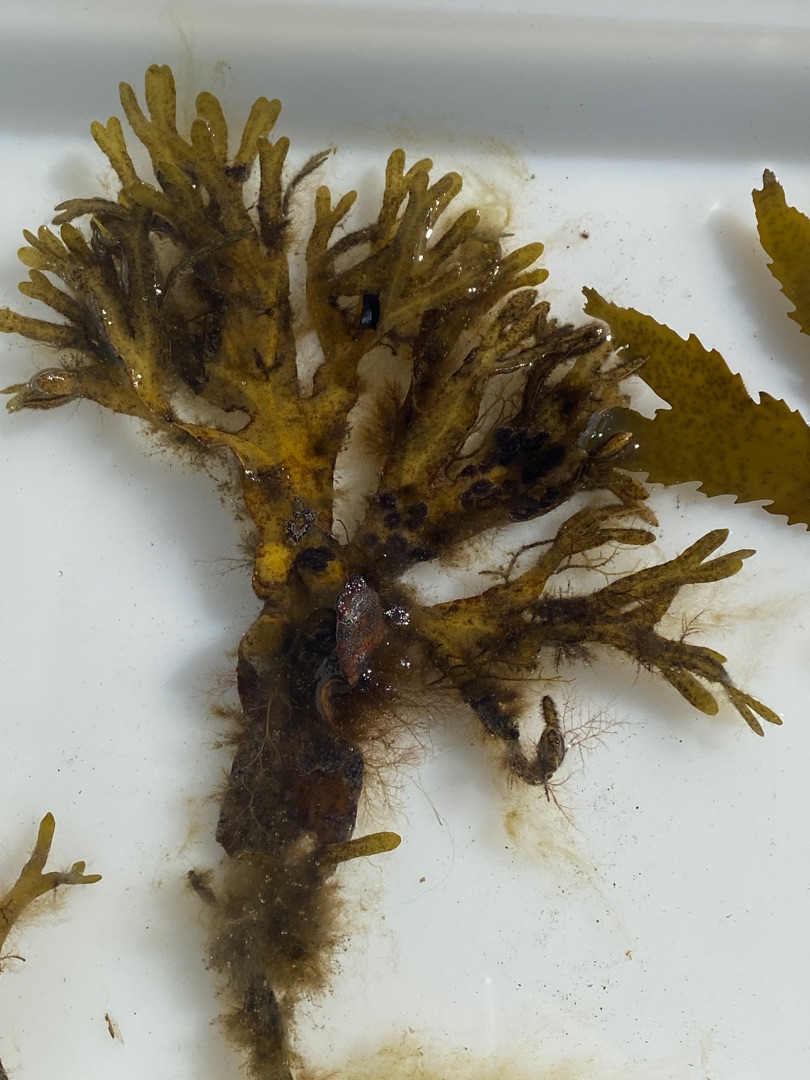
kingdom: Chromista
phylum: Ochrophyta
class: Phaeophyceae
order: Fucales
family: Fucaceae
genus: Fucus
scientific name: Fucus vesiculosus
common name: Blæretang
